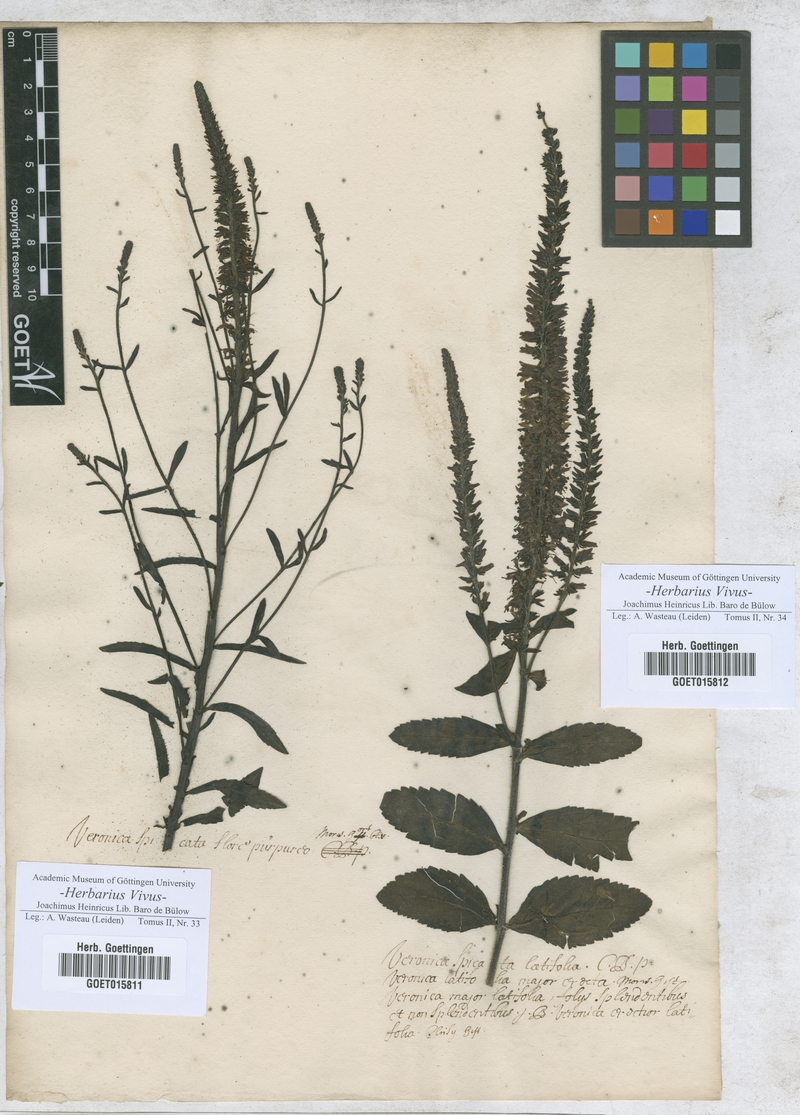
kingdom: Plantae
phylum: Tracheophyta
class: Magnoliopsida
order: Lamiales
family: Plantaginaceae
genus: Veronica
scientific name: Veronica
